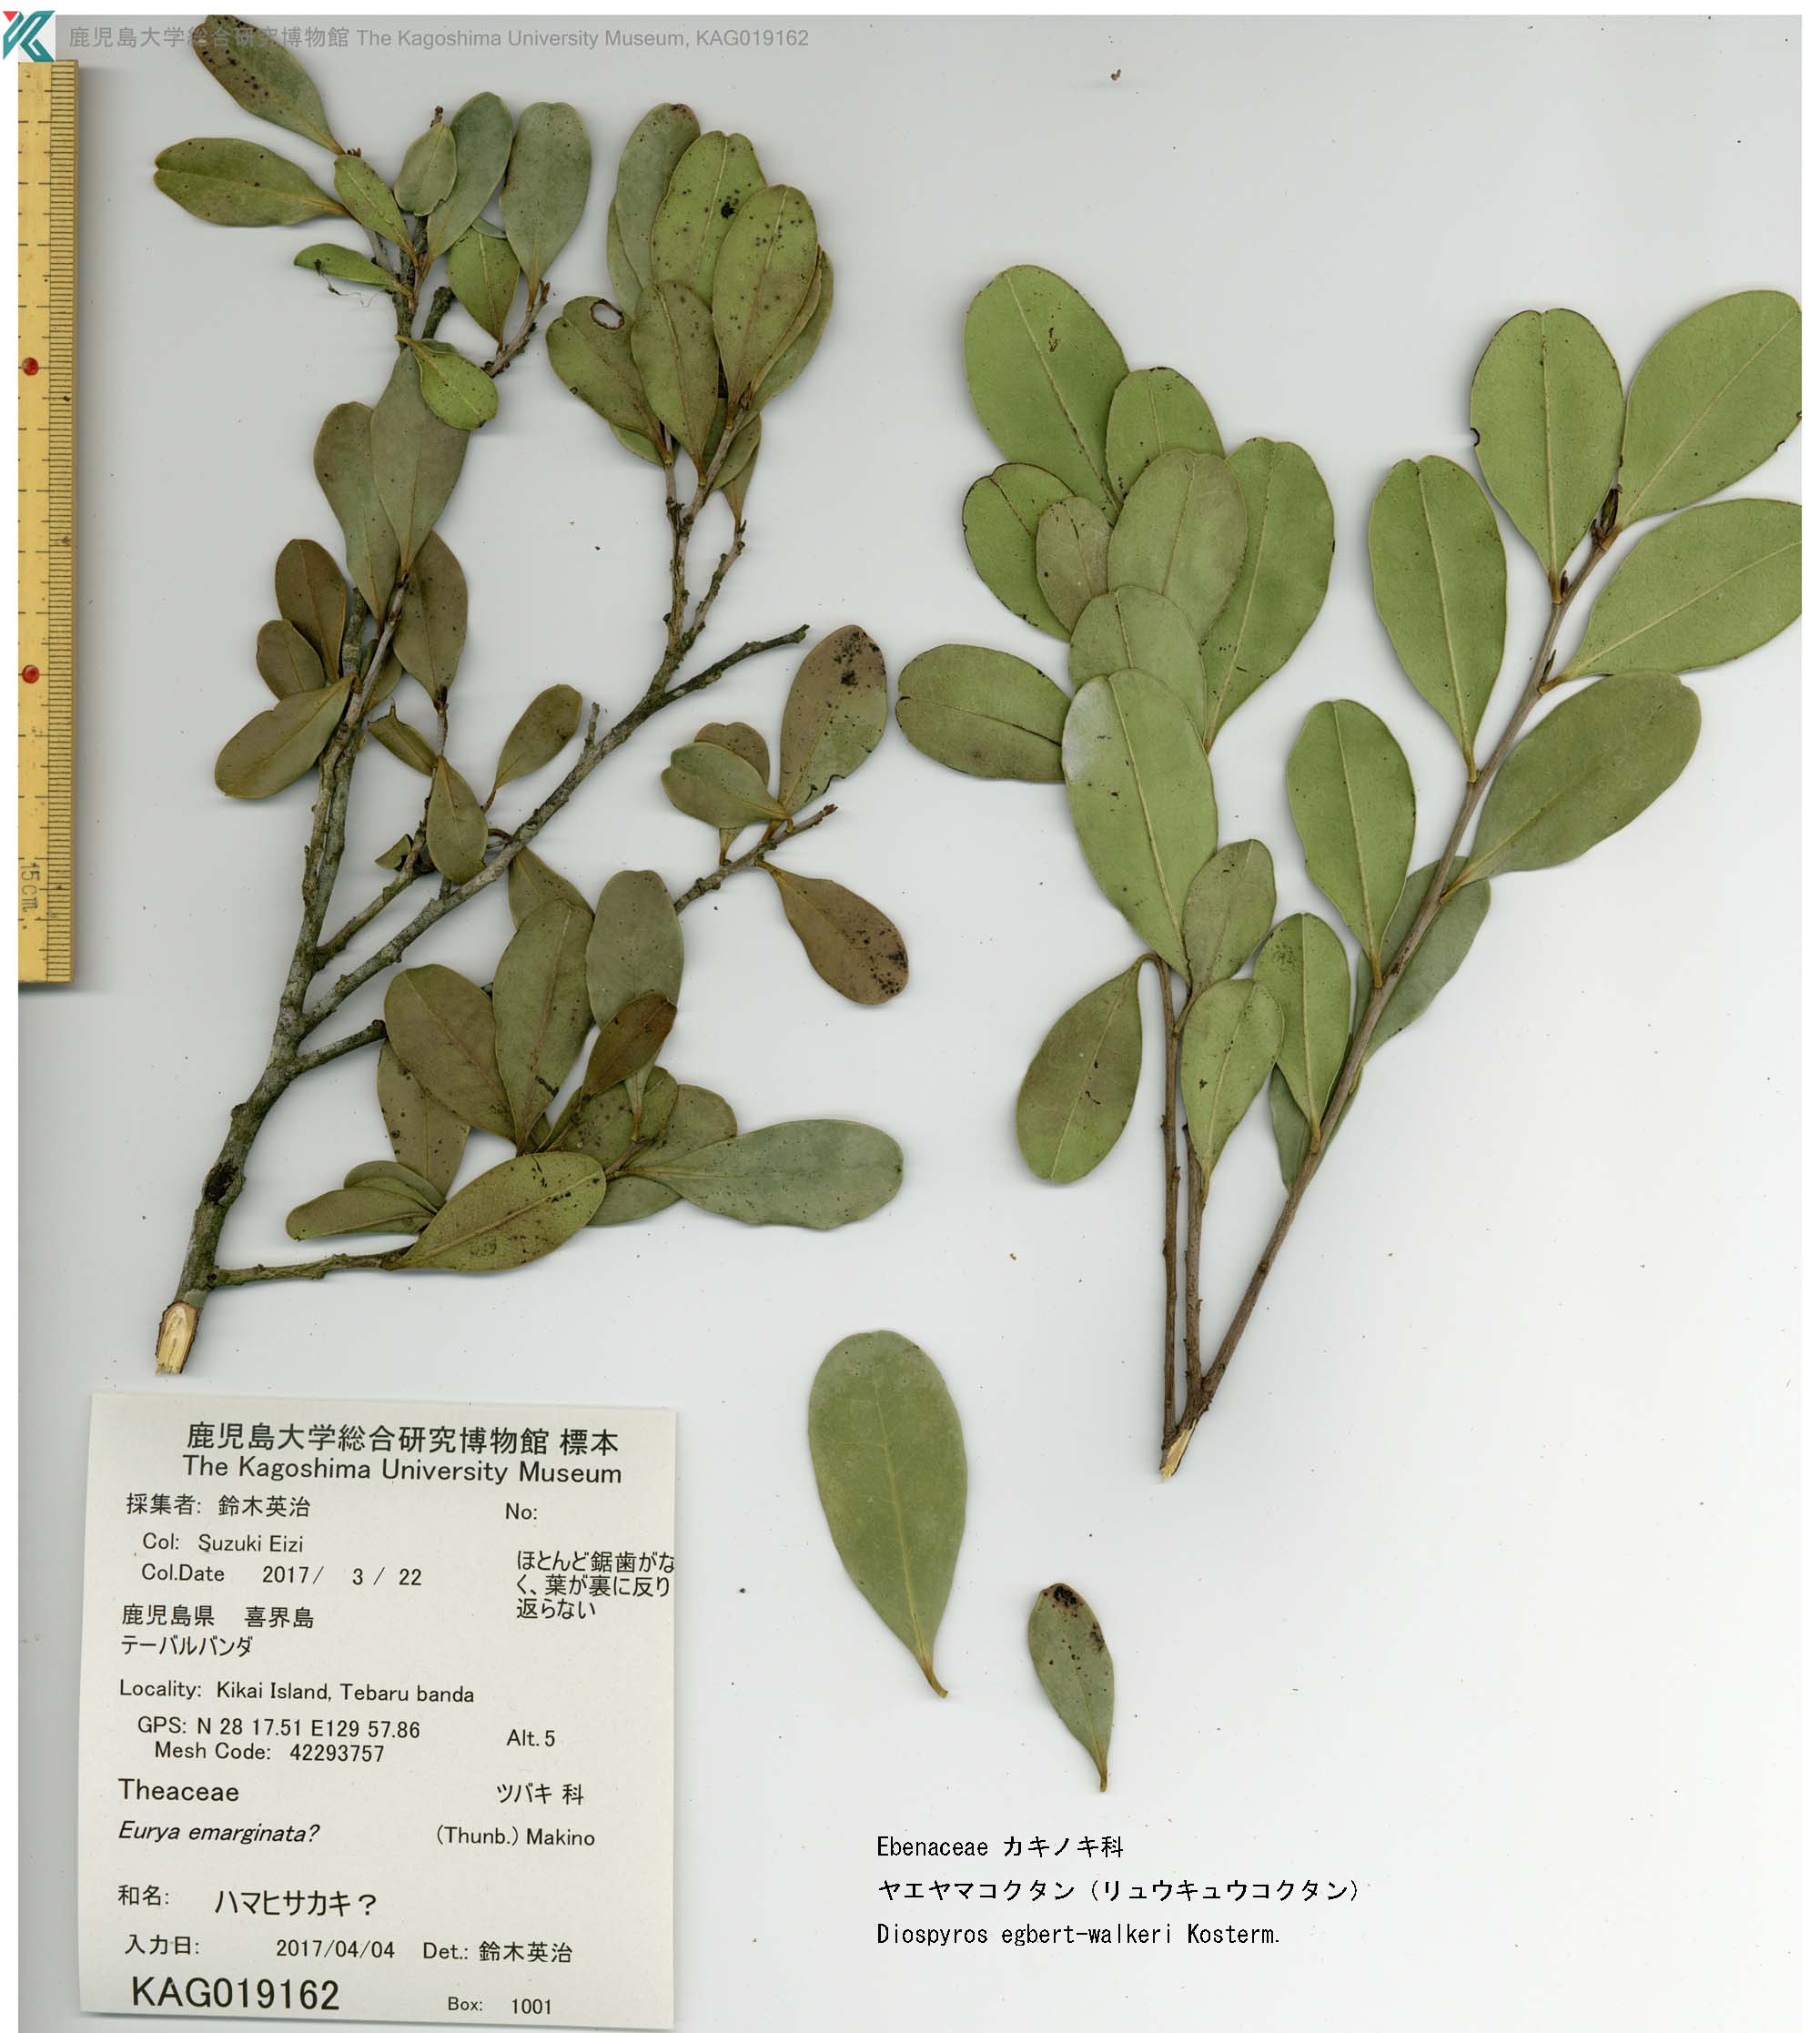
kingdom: Plantae
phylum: Tracheophyta
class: Magnoliopsida
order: Ericales
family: Ebenaceae
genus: Diospyros
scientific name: Diospyros ferrea
